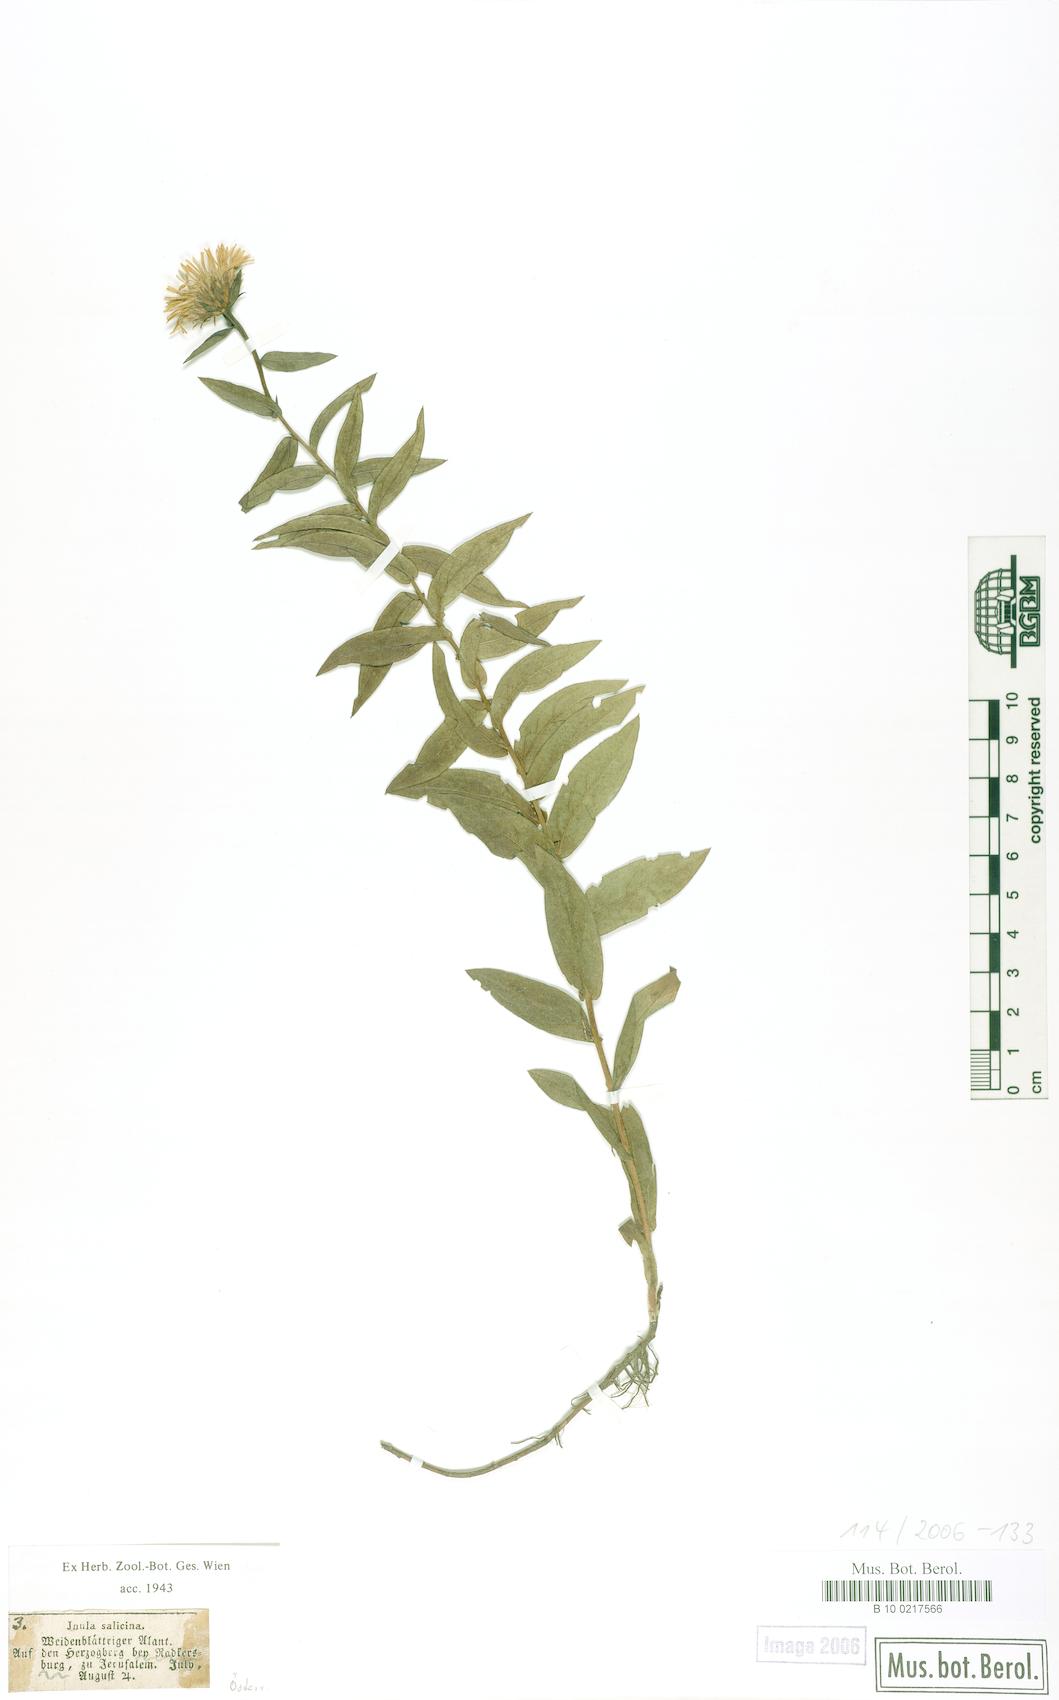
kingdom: Plantae
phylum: Tracheophyta
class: Magnoliopsida
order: Asterales
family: Asteraceae
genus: Pentanema
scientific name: Pentanema salicinum
